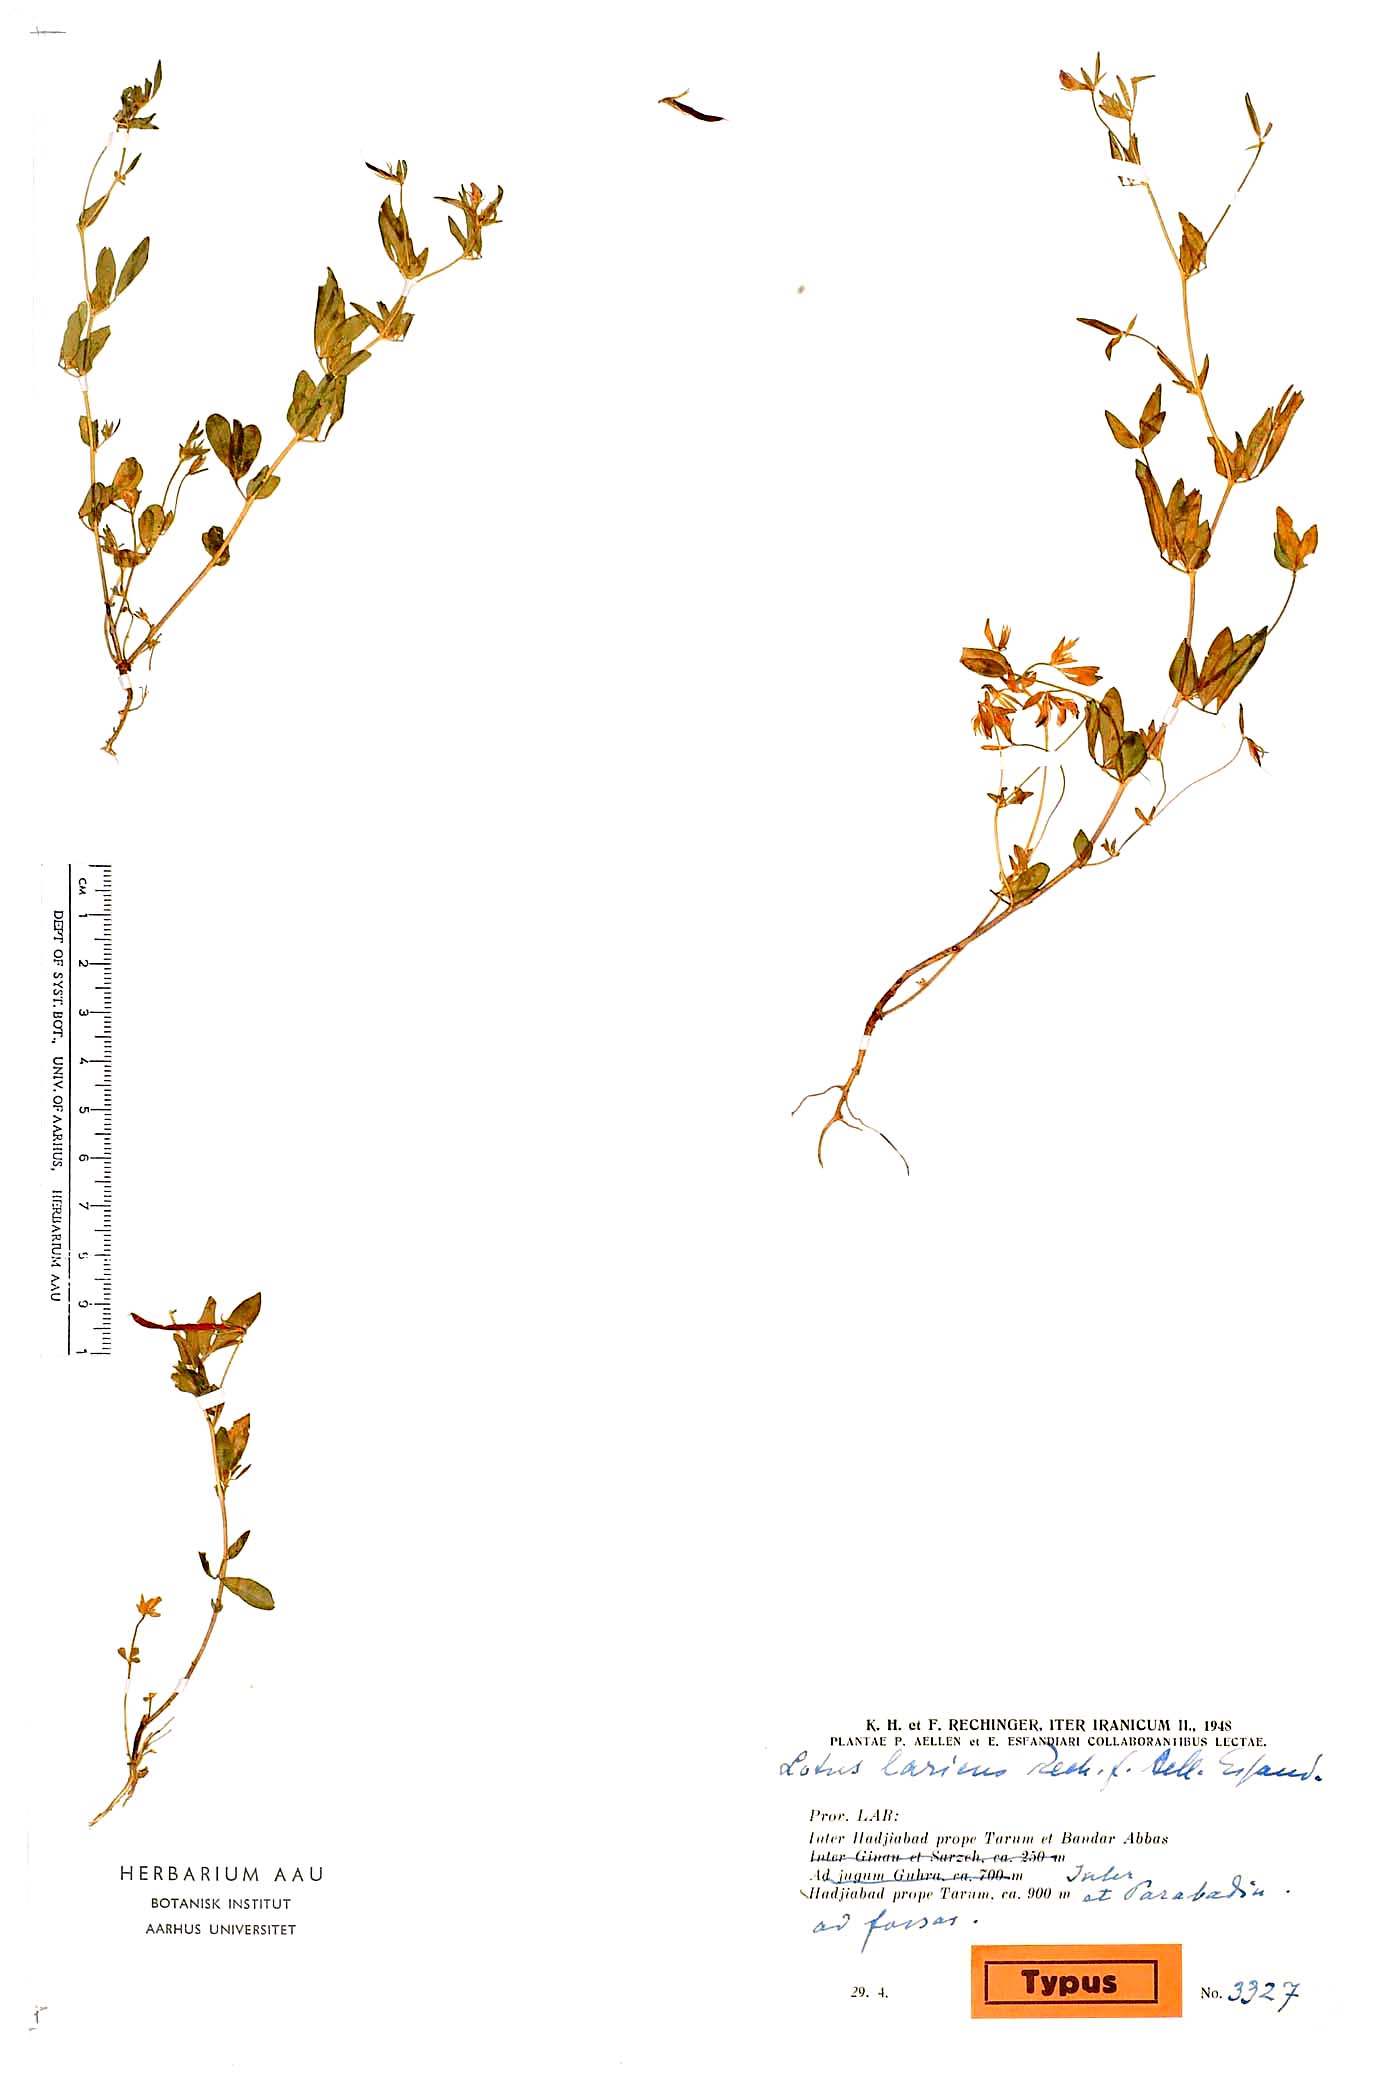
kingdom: Plantae
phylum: Tracheophyta
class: Magnoliopsida
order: Fabales
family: Fabaceae
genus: Lotus
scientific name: Lotus laricus
